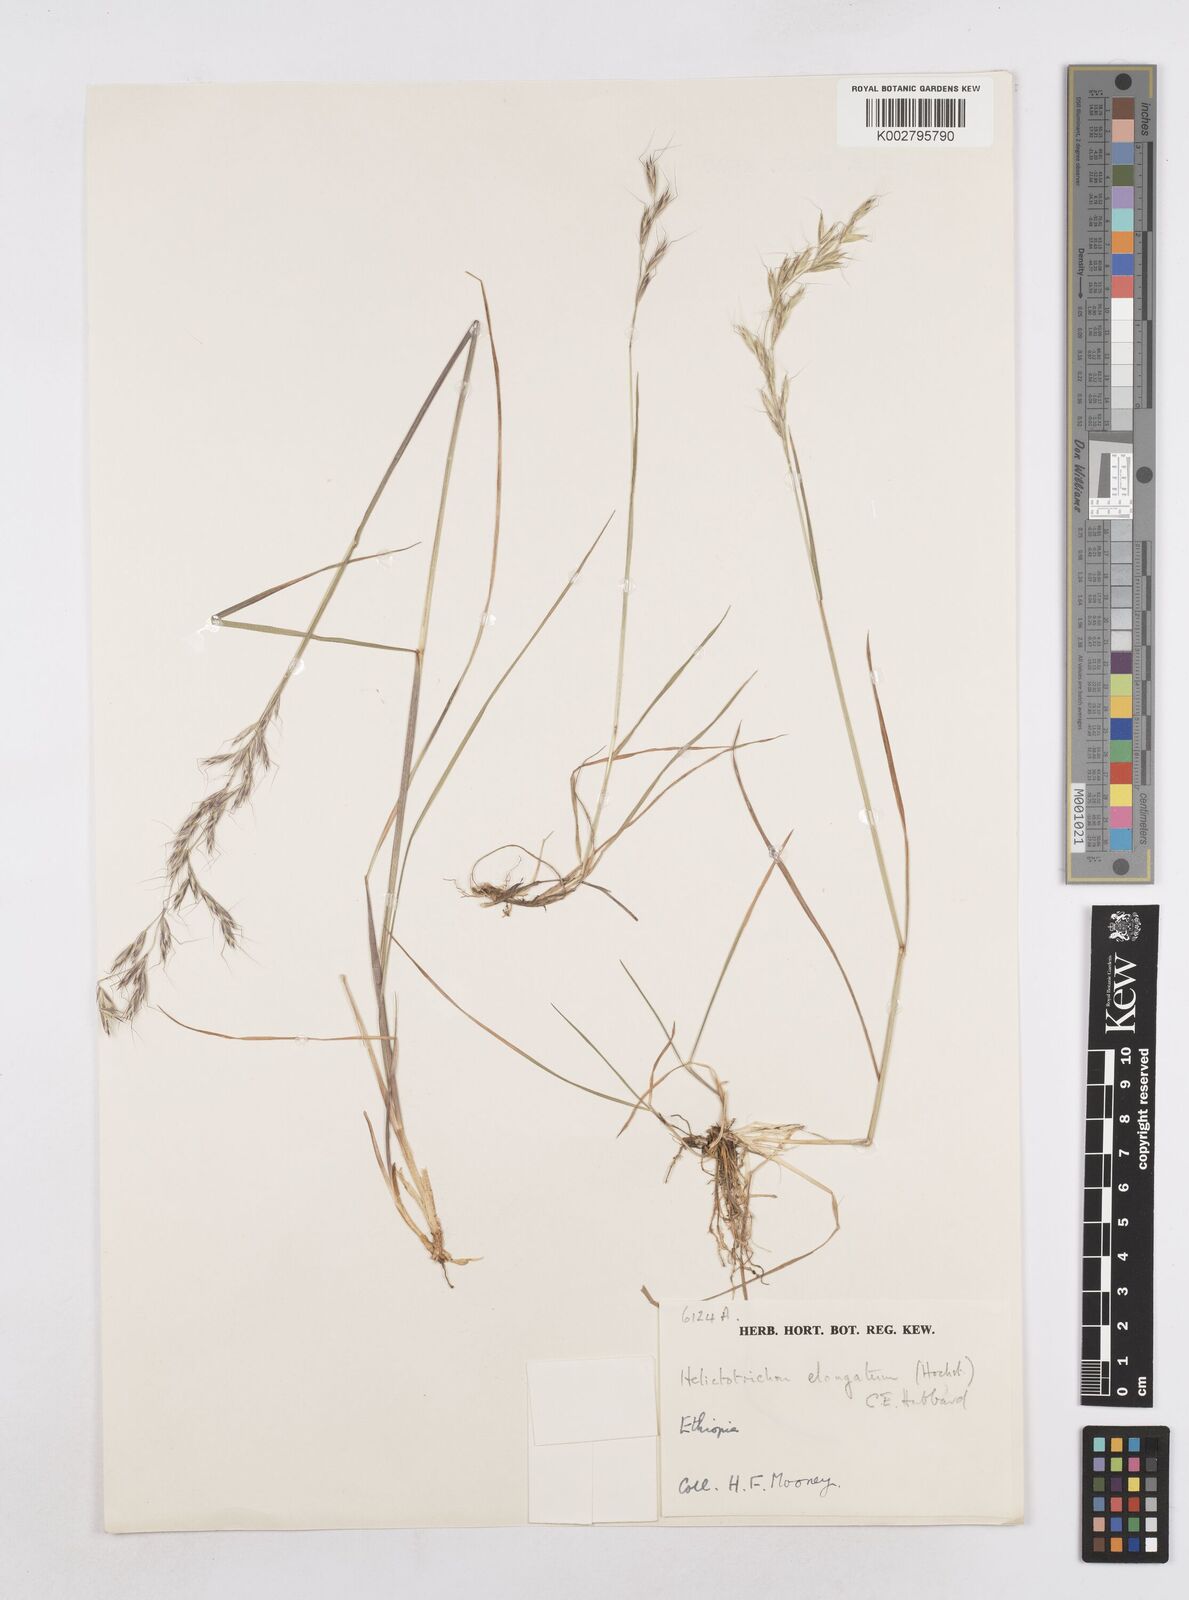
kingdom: Plantae
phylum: Tracheophyta
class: Liliopsida
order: Poales
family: Poaceae
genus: Trisetopsis
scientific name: Trisetopsis elongata
